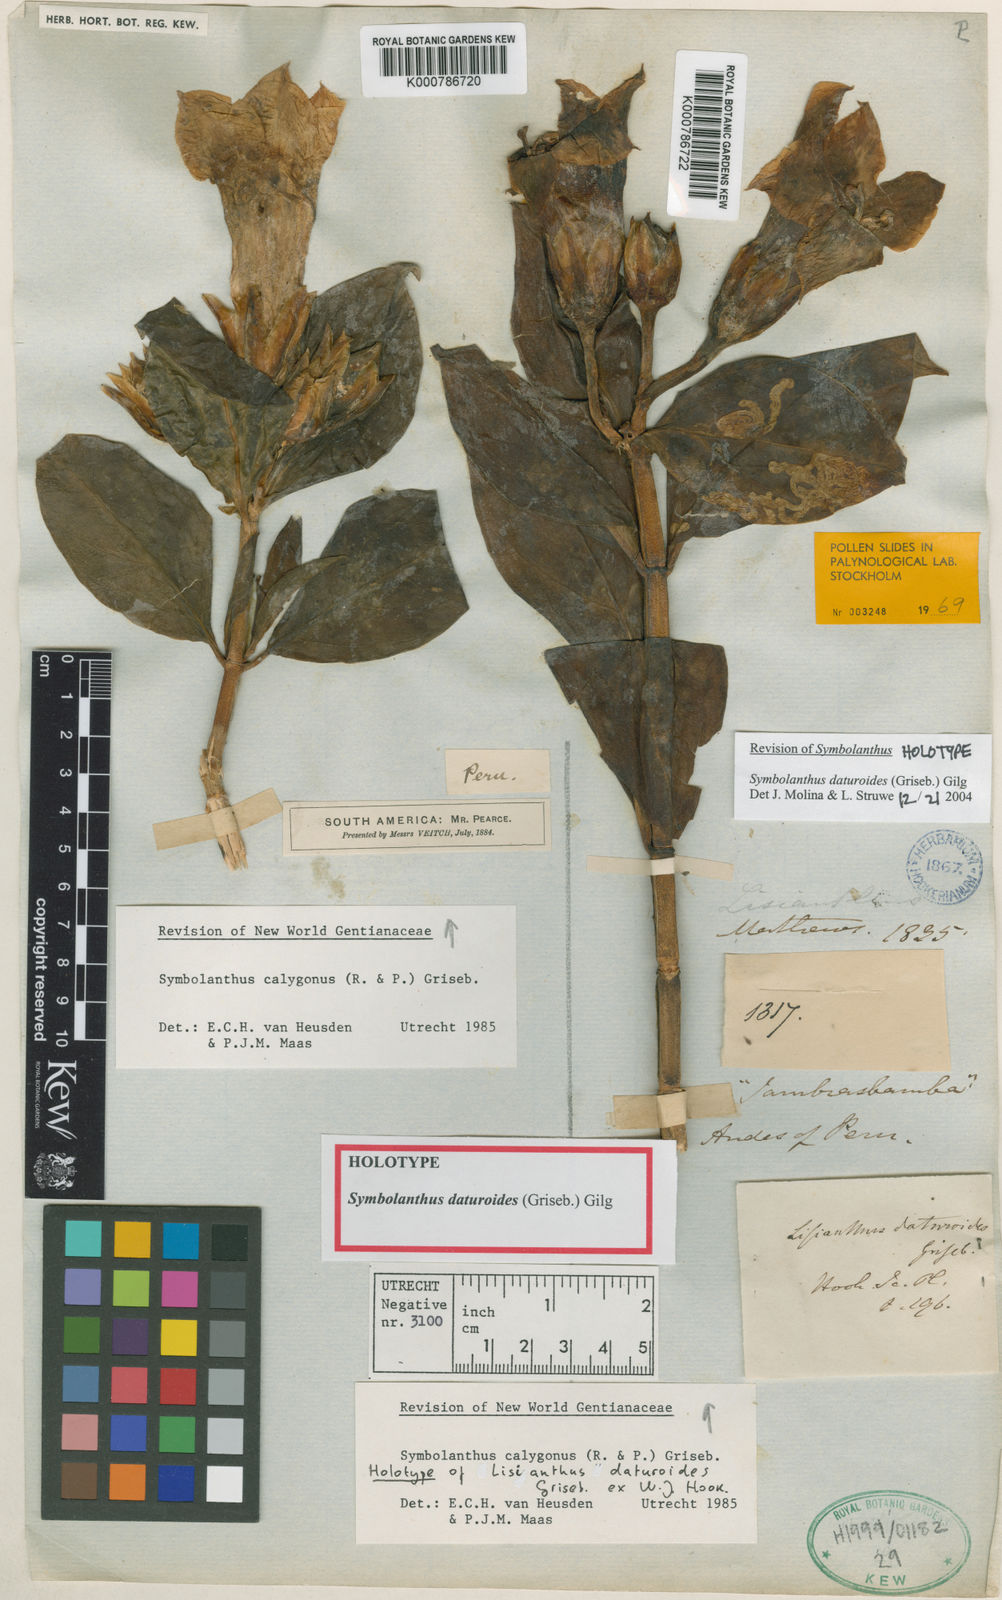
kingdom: Plantae
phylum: Tracheophyta
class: Magnoliopsida
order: Gentianales
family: Gentianaceae
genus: Symbolanthus
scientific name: Symbolanthus
